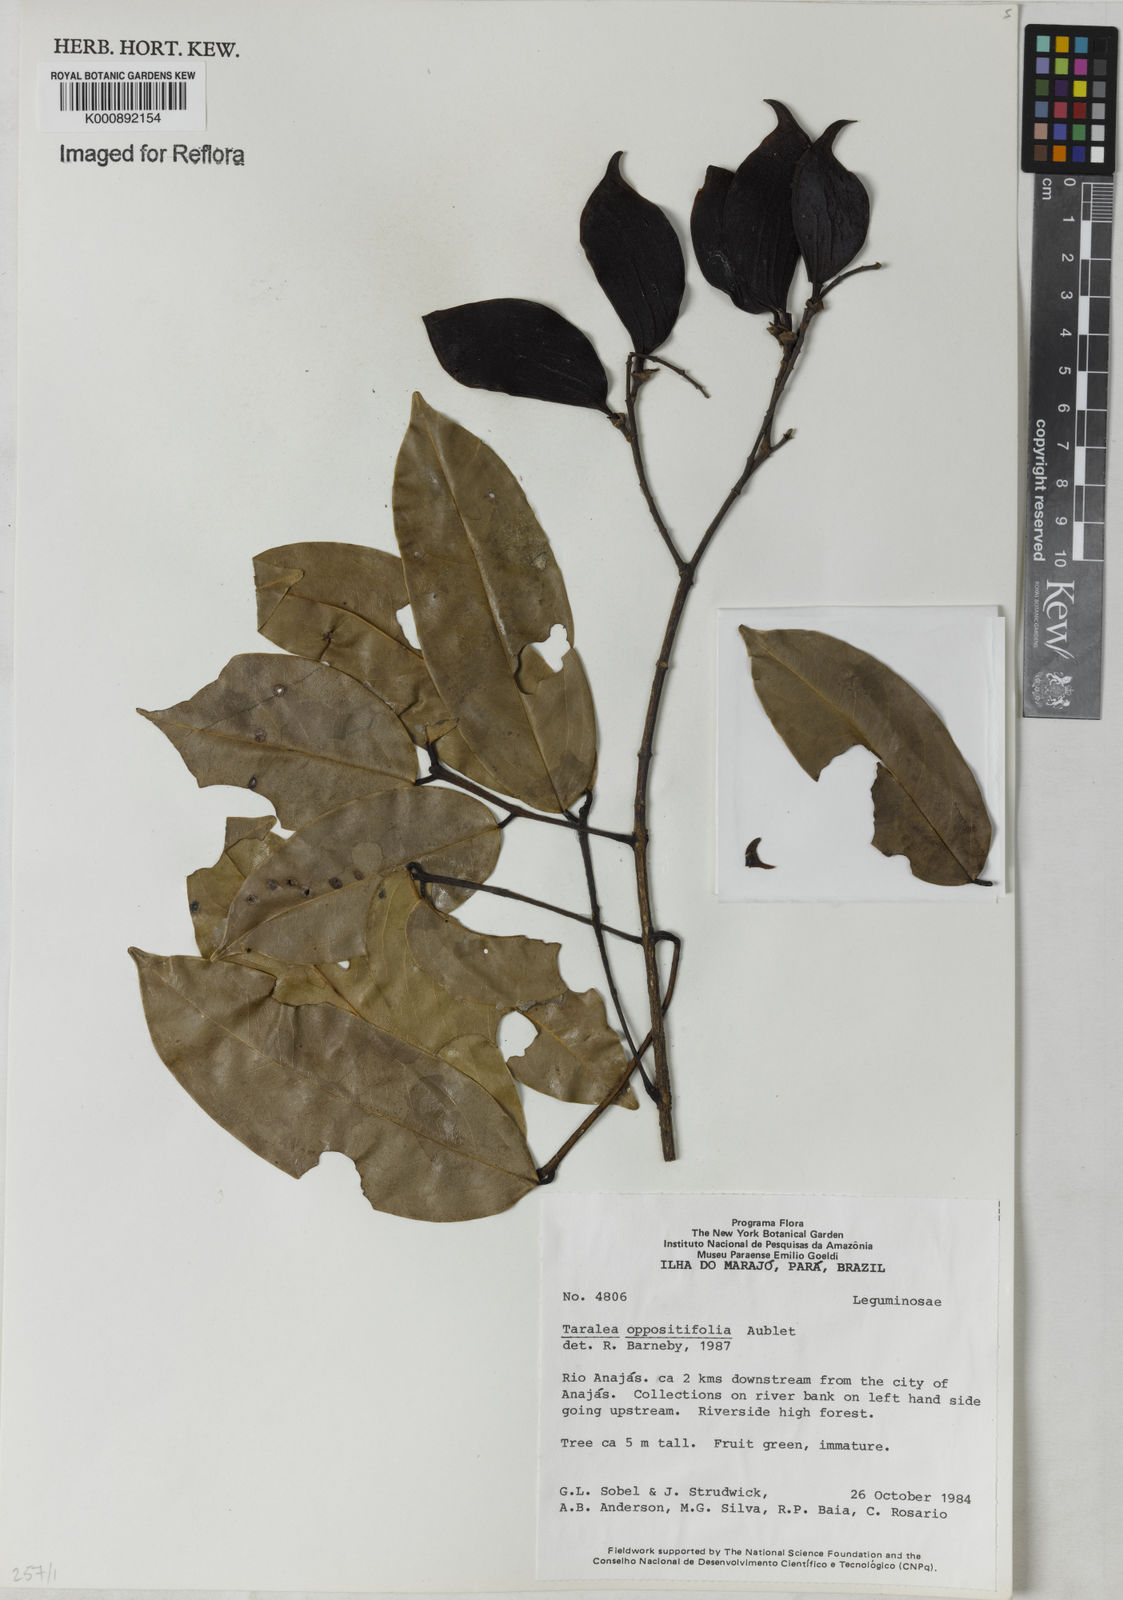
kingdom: Plantae
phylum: Tracheophyta
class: Magnoliopsida
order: Fabales
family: Fabaceae
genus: Taralea
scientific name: Taralea oppositifolia
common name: Tonka
